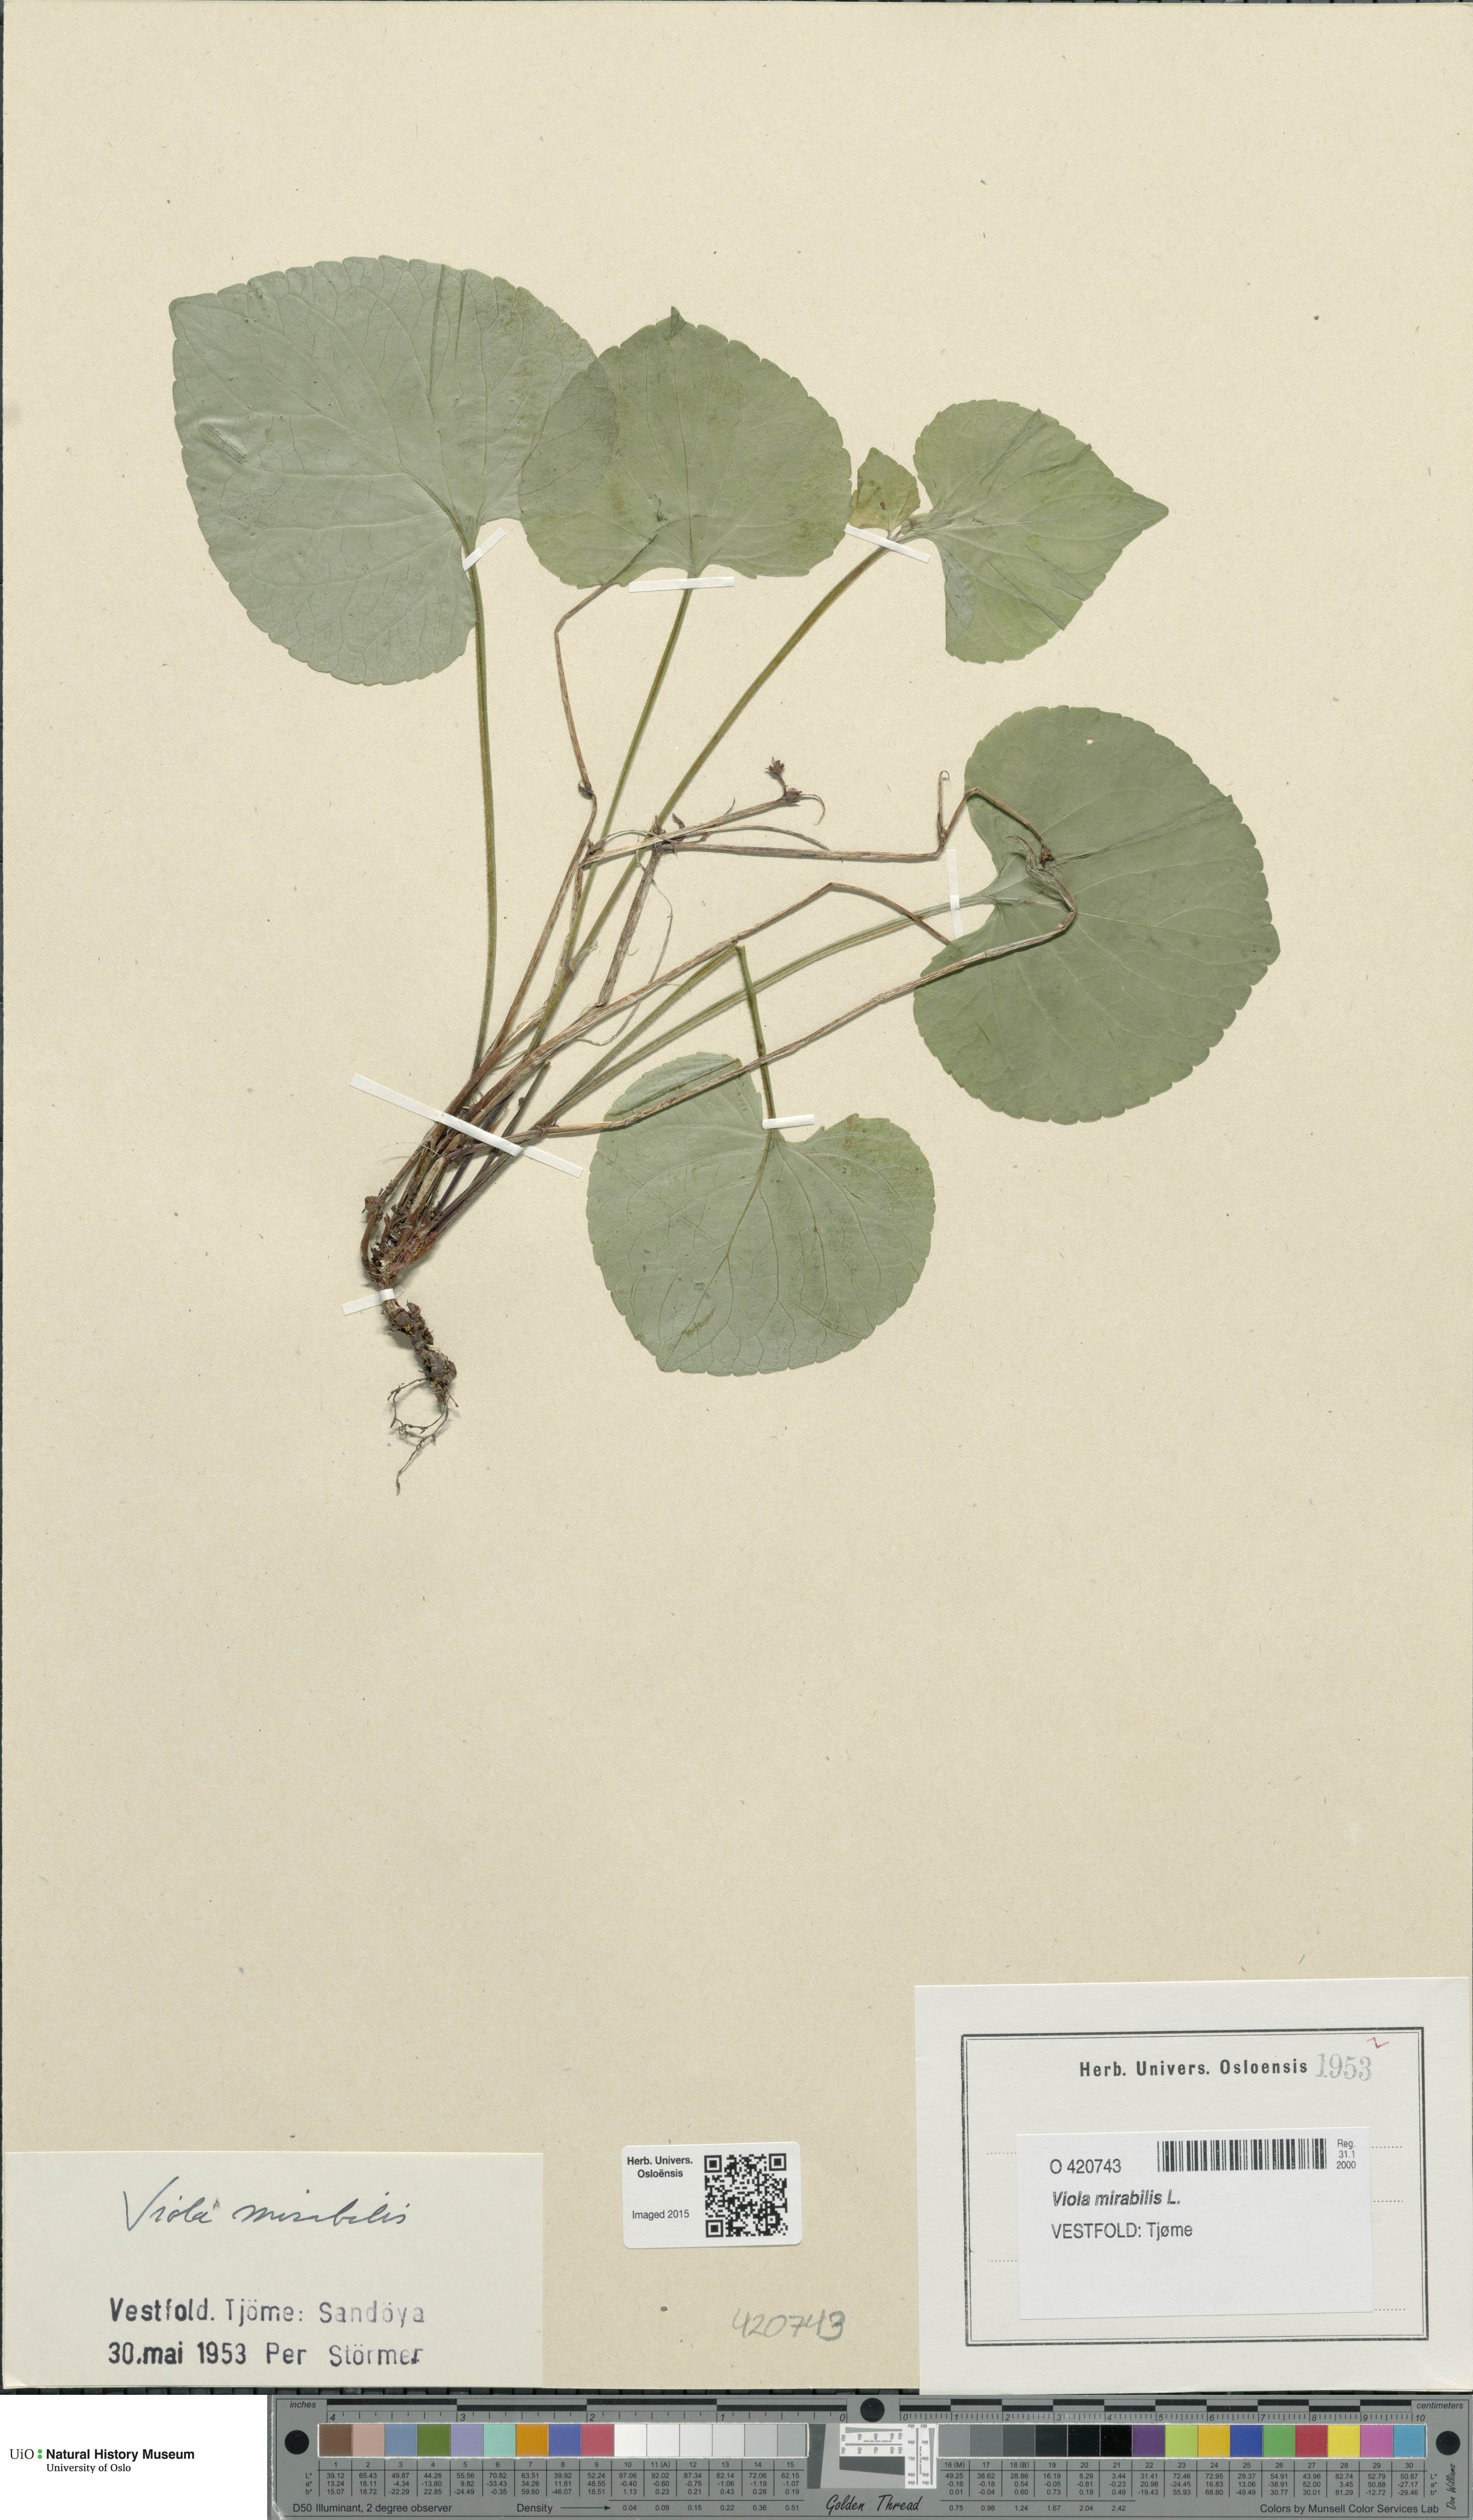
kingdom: Plantae
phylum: Tracheophyta
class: Magnoliopsida
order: Malpighiales
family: Violaceae
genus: Viola
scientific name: Viola mirabilis
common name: Wonder violet
